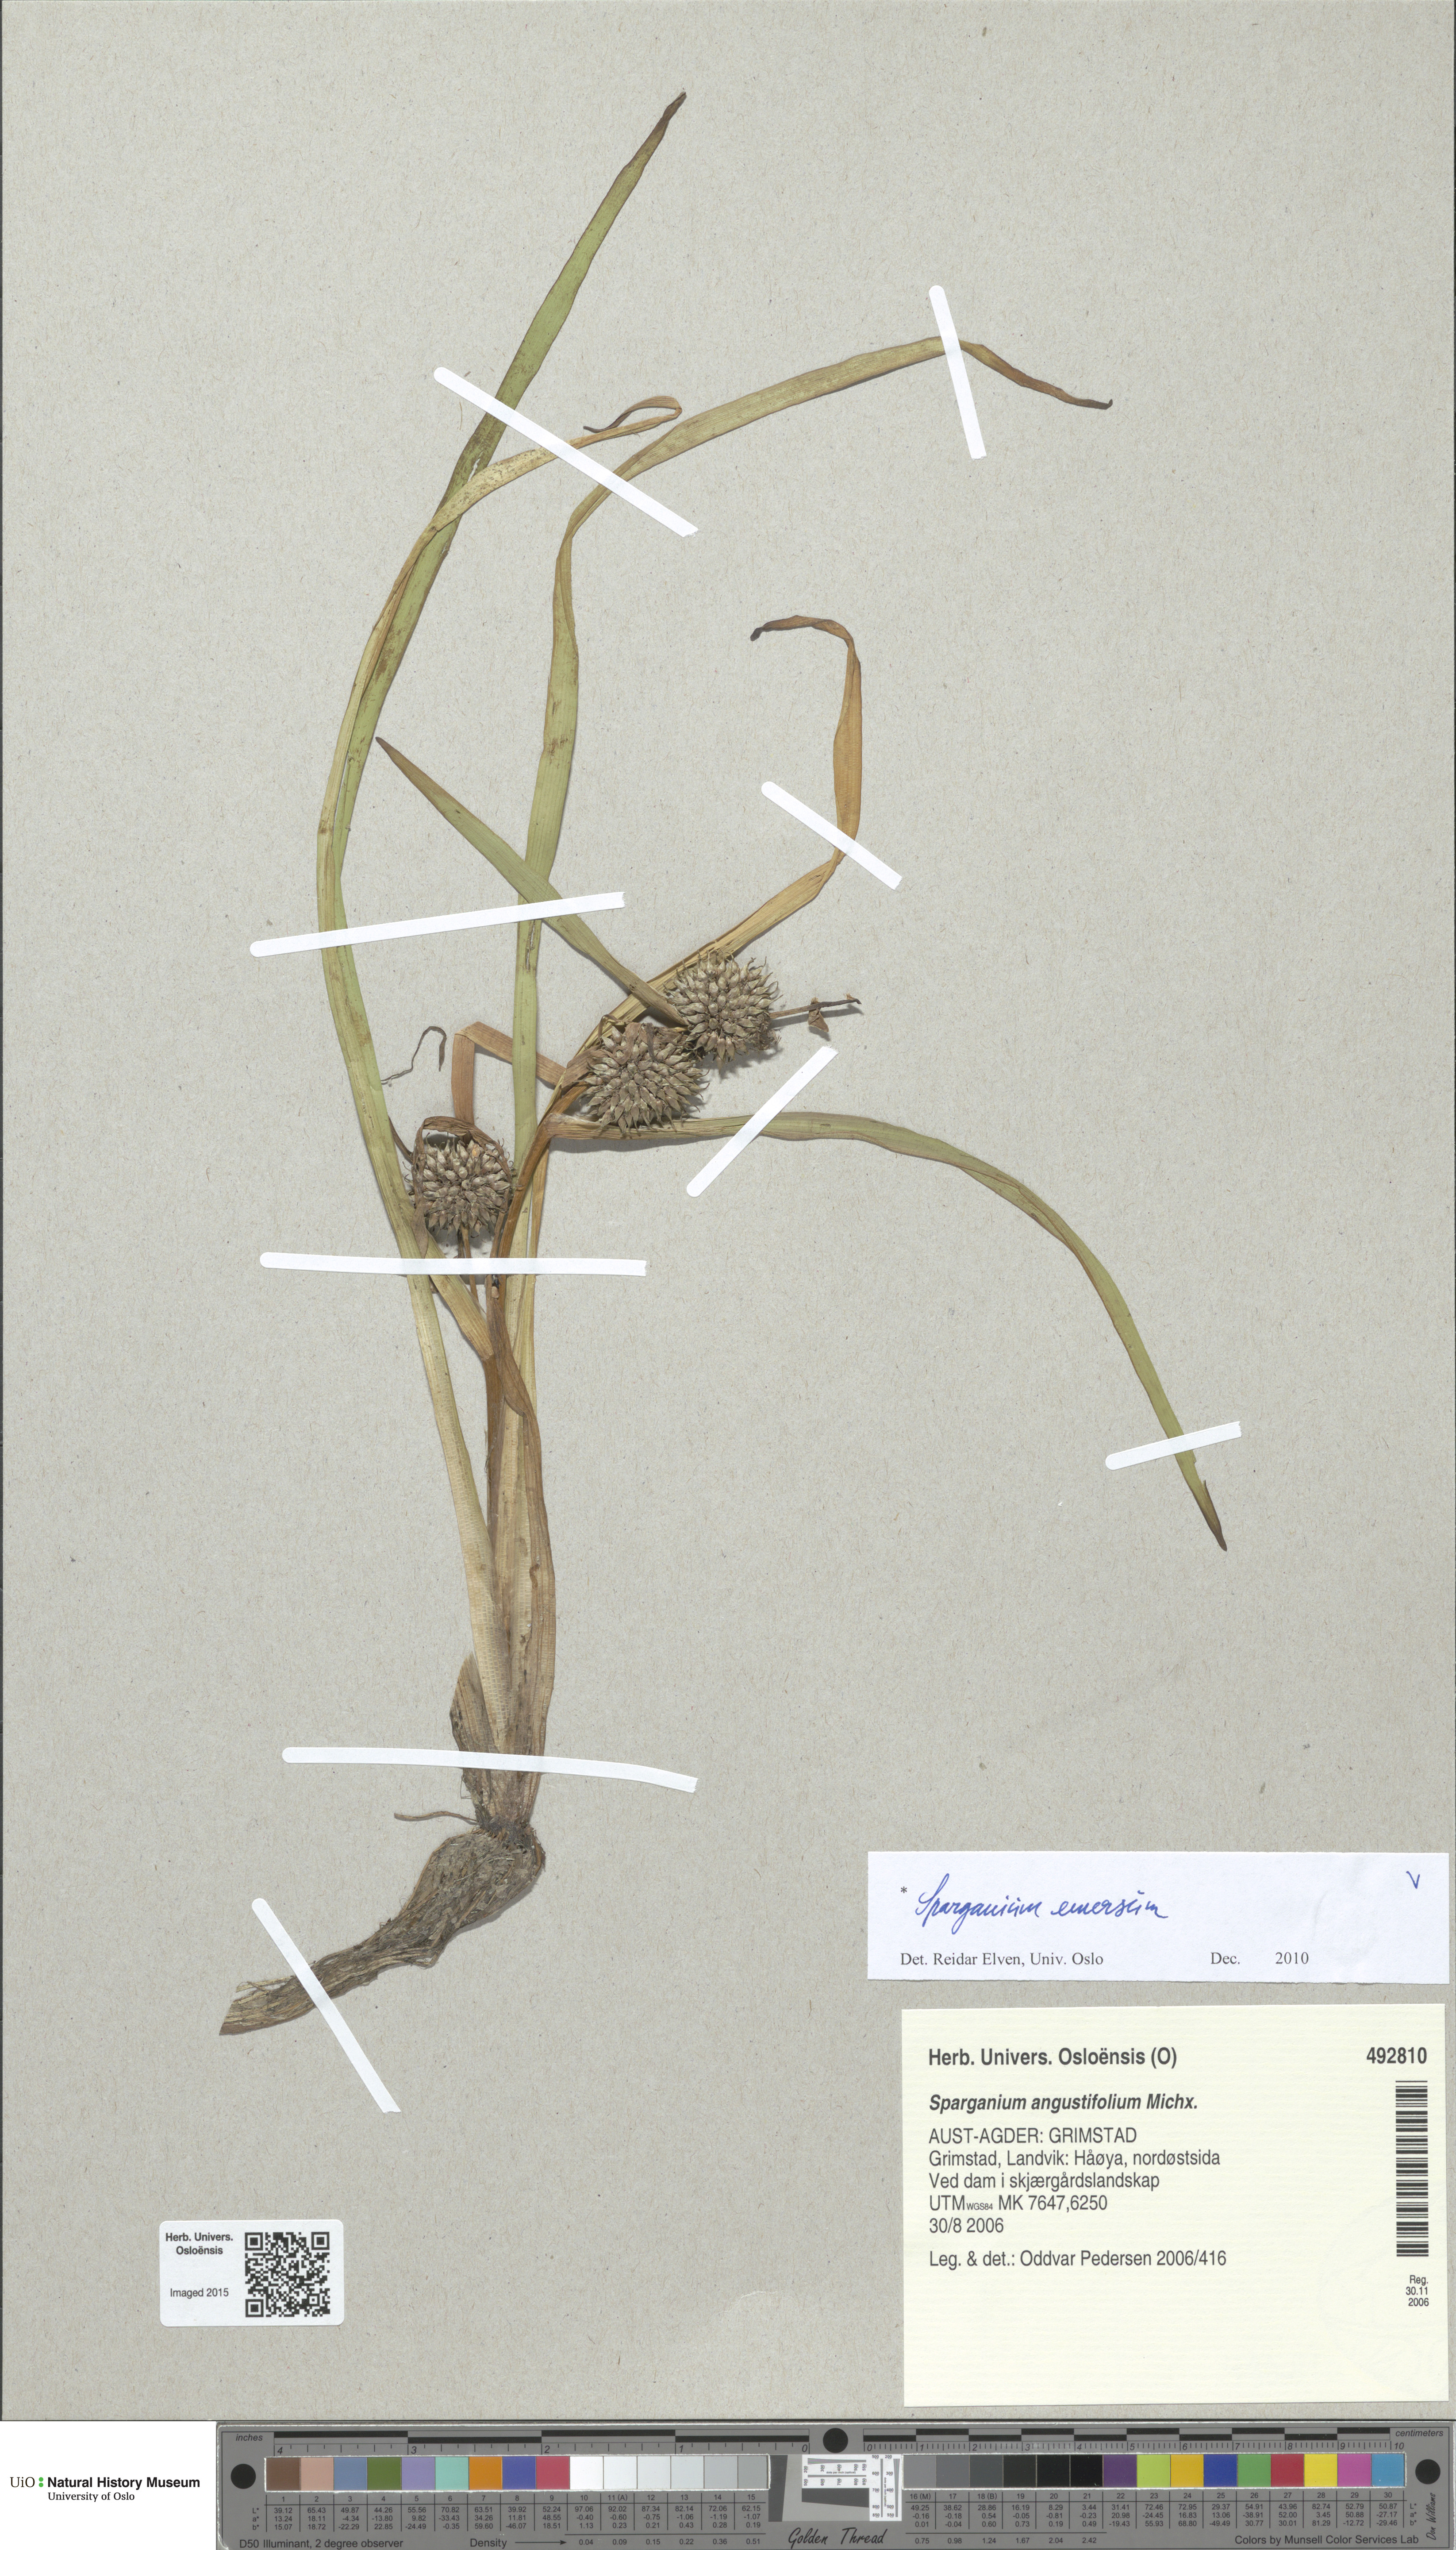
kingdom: Plantae
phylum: Tracheophyta
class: Liliopsida
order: Poales
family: Typhaceae
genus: Sparganium
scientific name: Sparganium emersum
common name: Unbranched bur-reed
